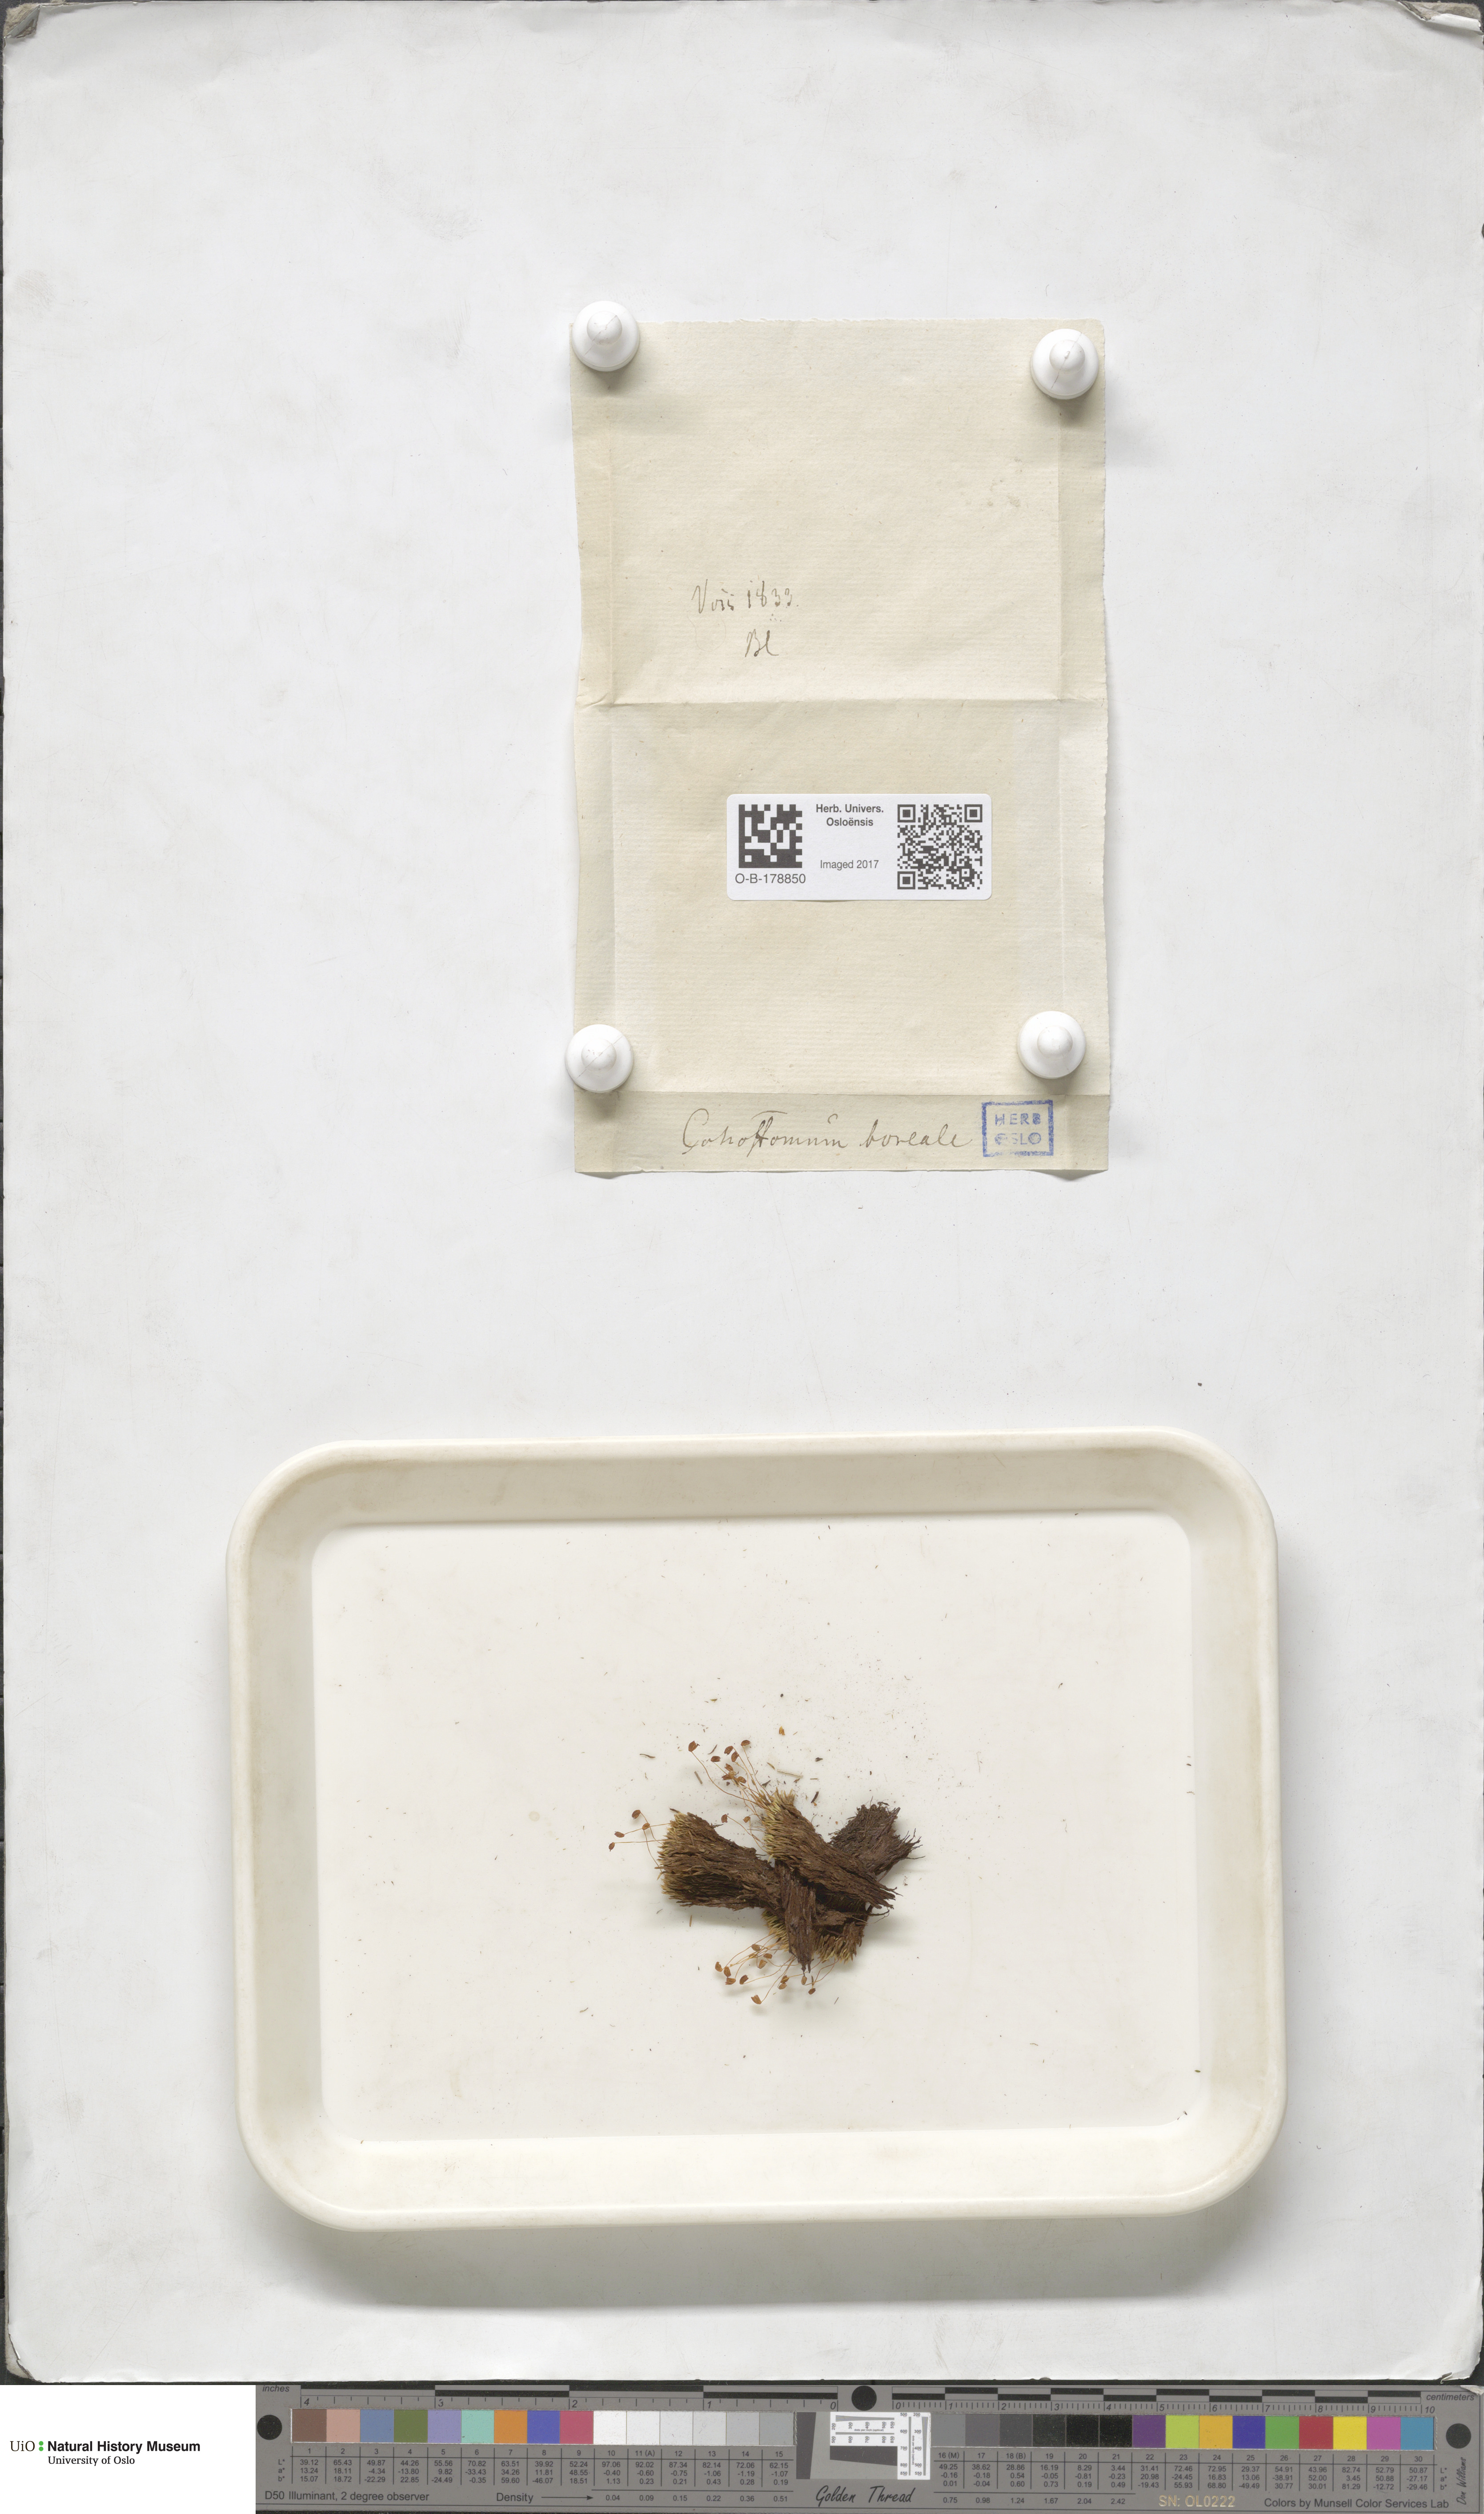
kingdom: Plantae
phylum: Bryophyta
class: Bryopsida
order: Bartramiales
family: Bartramiaceae
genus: Conostomum
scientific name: Conostomum tetragonum
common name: Helmet moss
